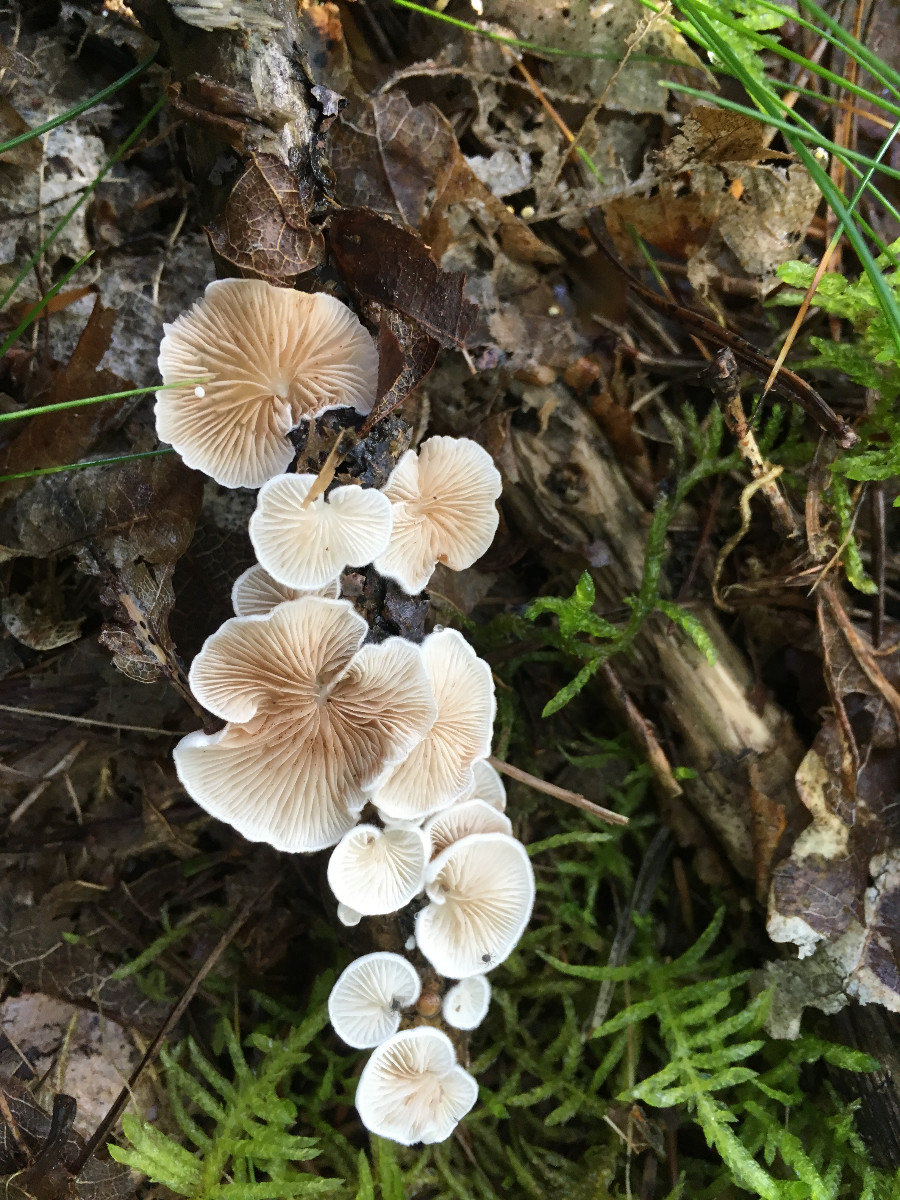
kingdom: Fungi
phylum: Basidiomycota
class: Agaricomycetes
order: Agaricales
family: Crepidotaceae
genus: Crepidotus
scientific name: Crepidotus
